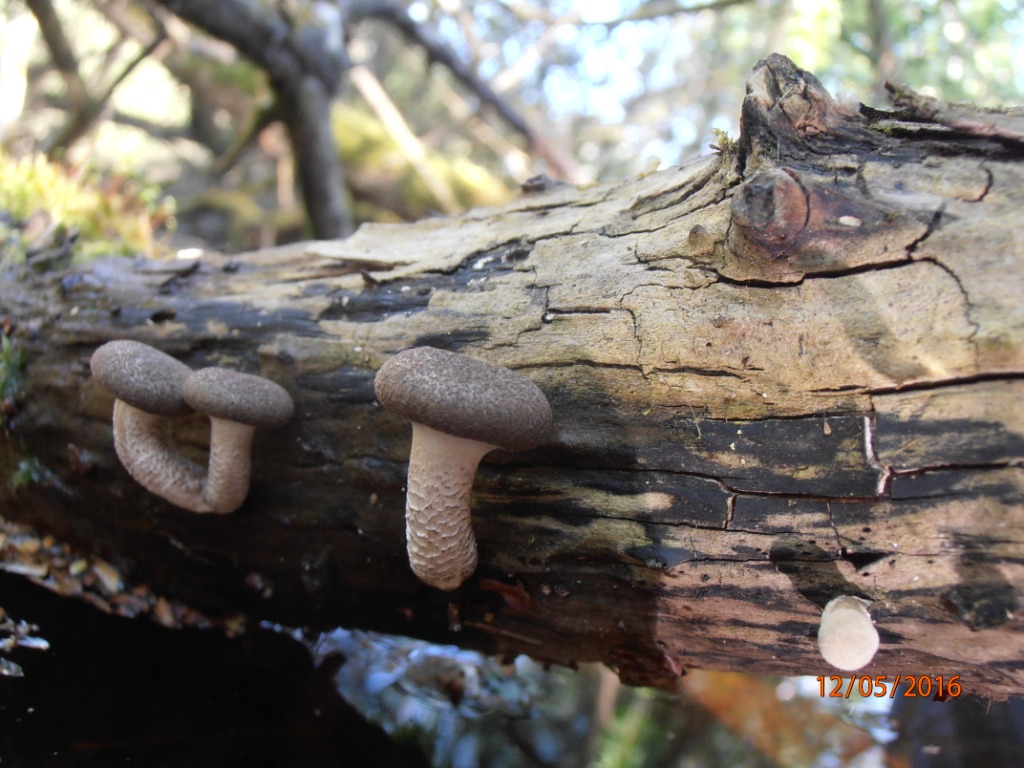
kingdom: Fungi
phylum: Basidiomycota
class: Agaricomycetes
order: Polyporales
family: Polyporaceae
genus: Lentinus
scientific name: Lentinus tigrinus
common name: tigerhat
